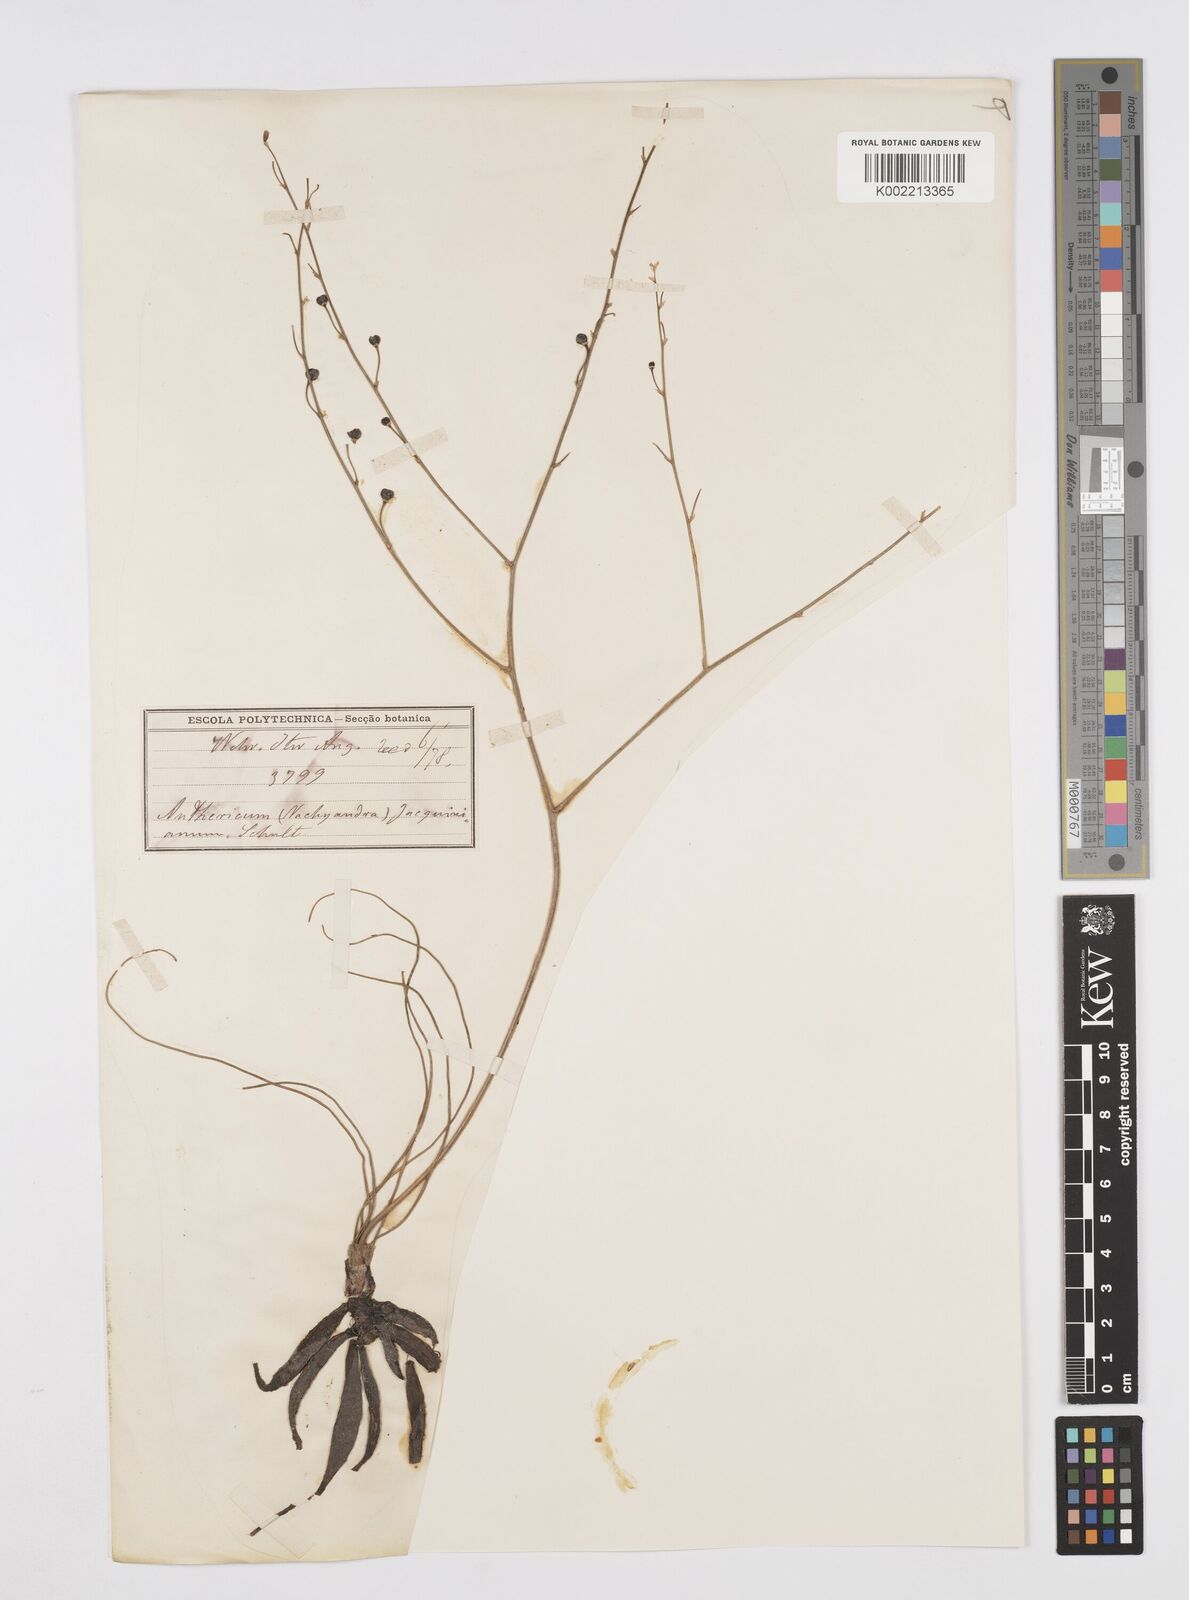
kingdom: Plantae
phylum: Tracheophyta
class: Liliopsida
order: Asparagales
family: Asphodelaceae
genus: Trachyandra
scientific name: Trachyandra arvensis
